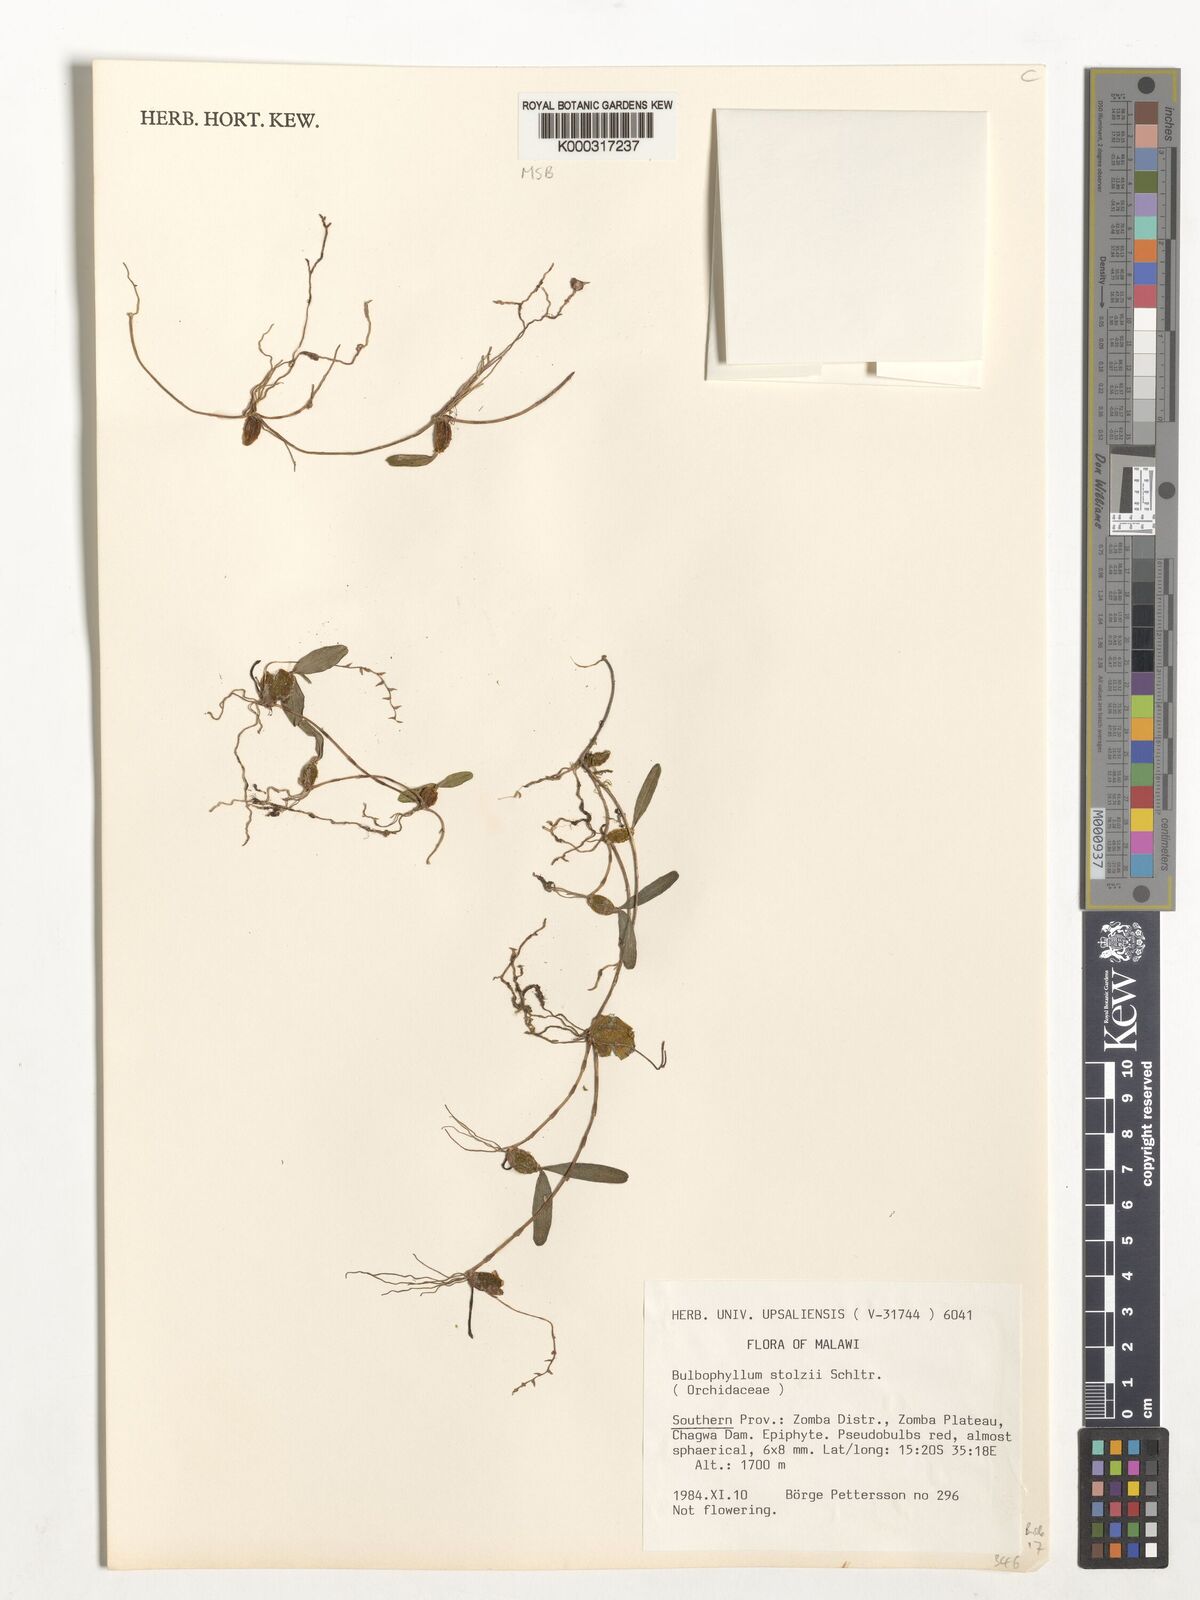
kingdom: Plantae
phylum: Tracheophyta
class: Liliopsida
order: Asparagales
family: Orchidaceae
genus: Bulbophyllum
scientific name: Bulbophyllum stolzii
